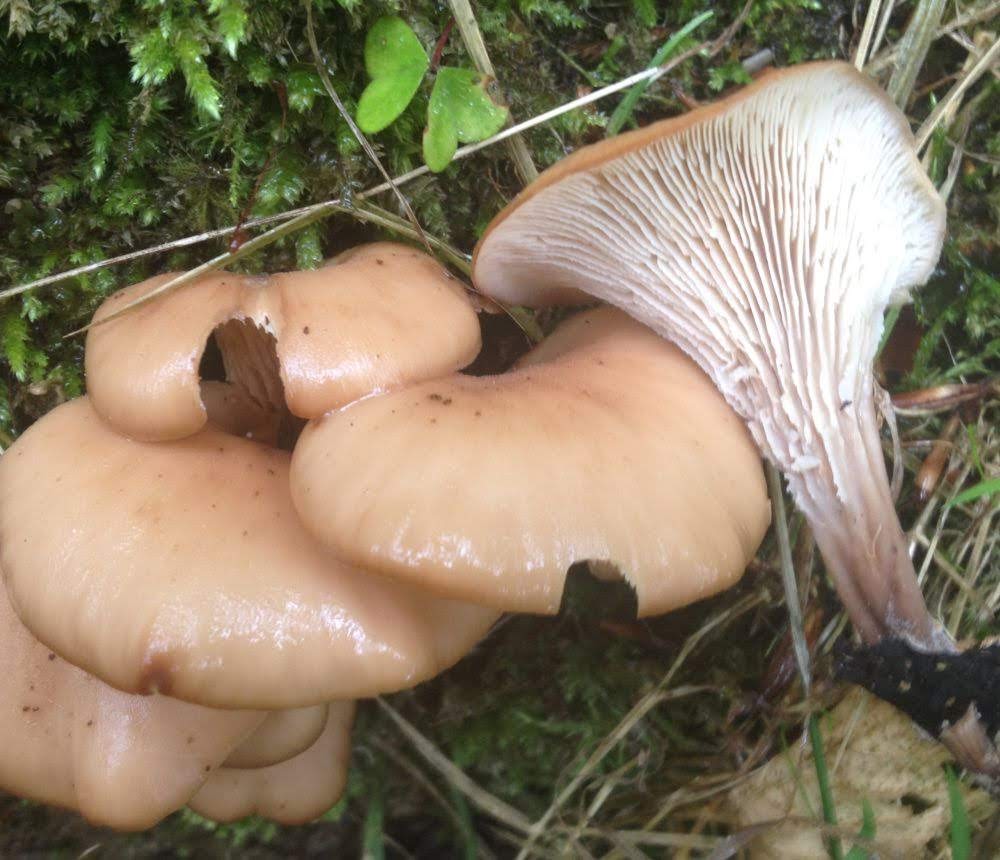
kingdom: Fungi
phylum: Basidiomycota
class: Agaricomycetes
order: Russulales
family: Auriscalpiaceae
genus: Lentinellus
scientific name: Lentinellus cochleatus
